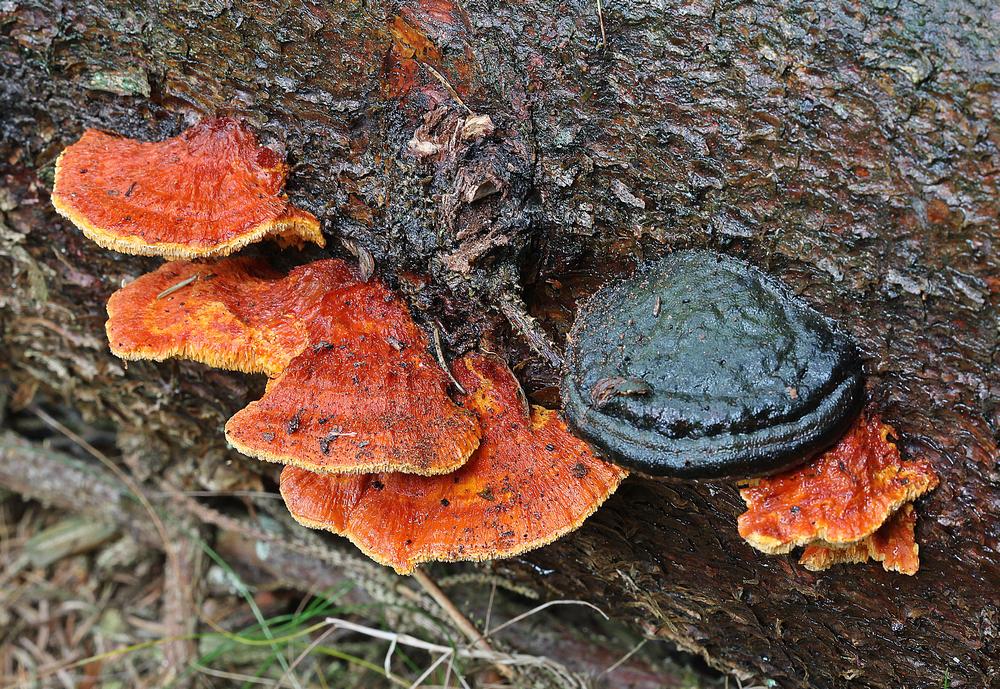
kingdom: Fungi
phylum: Basidiomycota
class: Agaricomycetes
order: Polyporales
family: Pycnoporellaceae
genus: Pycnoporellus
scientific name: Pycnoporellus fulgens
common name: flammeporesvamp
